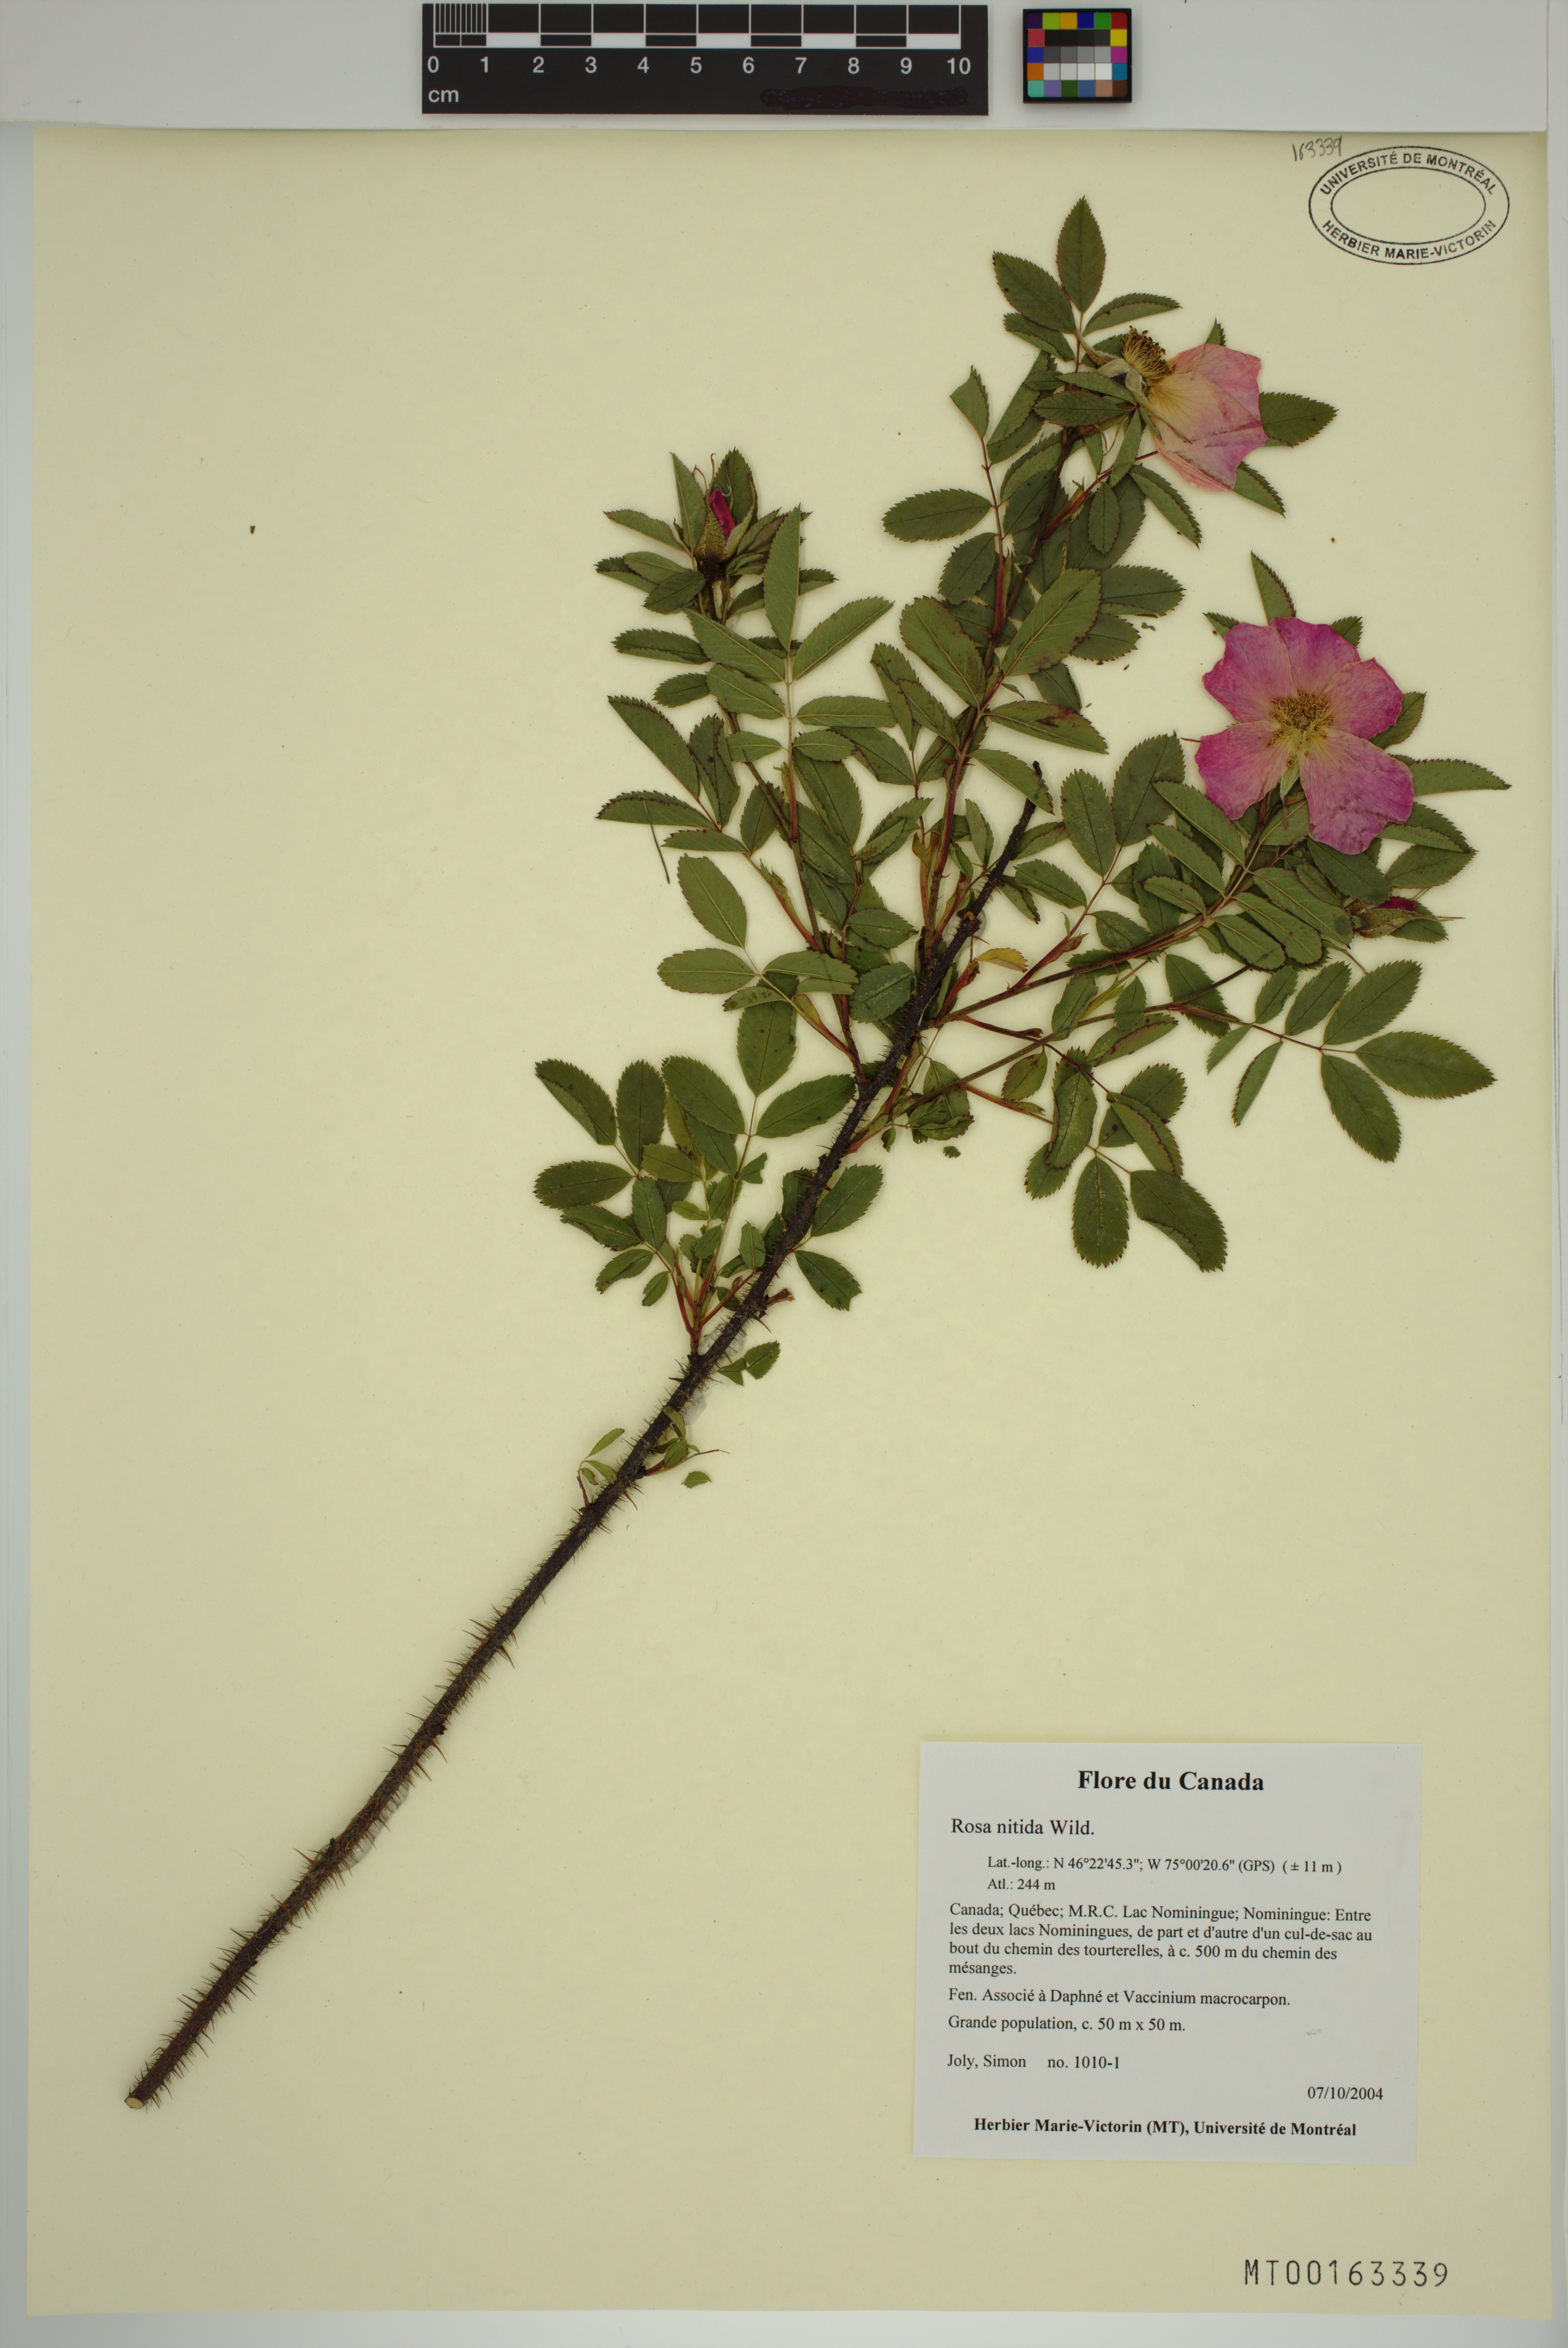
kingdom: Plantae
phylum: Tracheophyta
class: Magnoliopsida
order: Rosales
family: Rosaceae
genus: Rosa
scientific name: Rosa nitida
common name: New england rose
